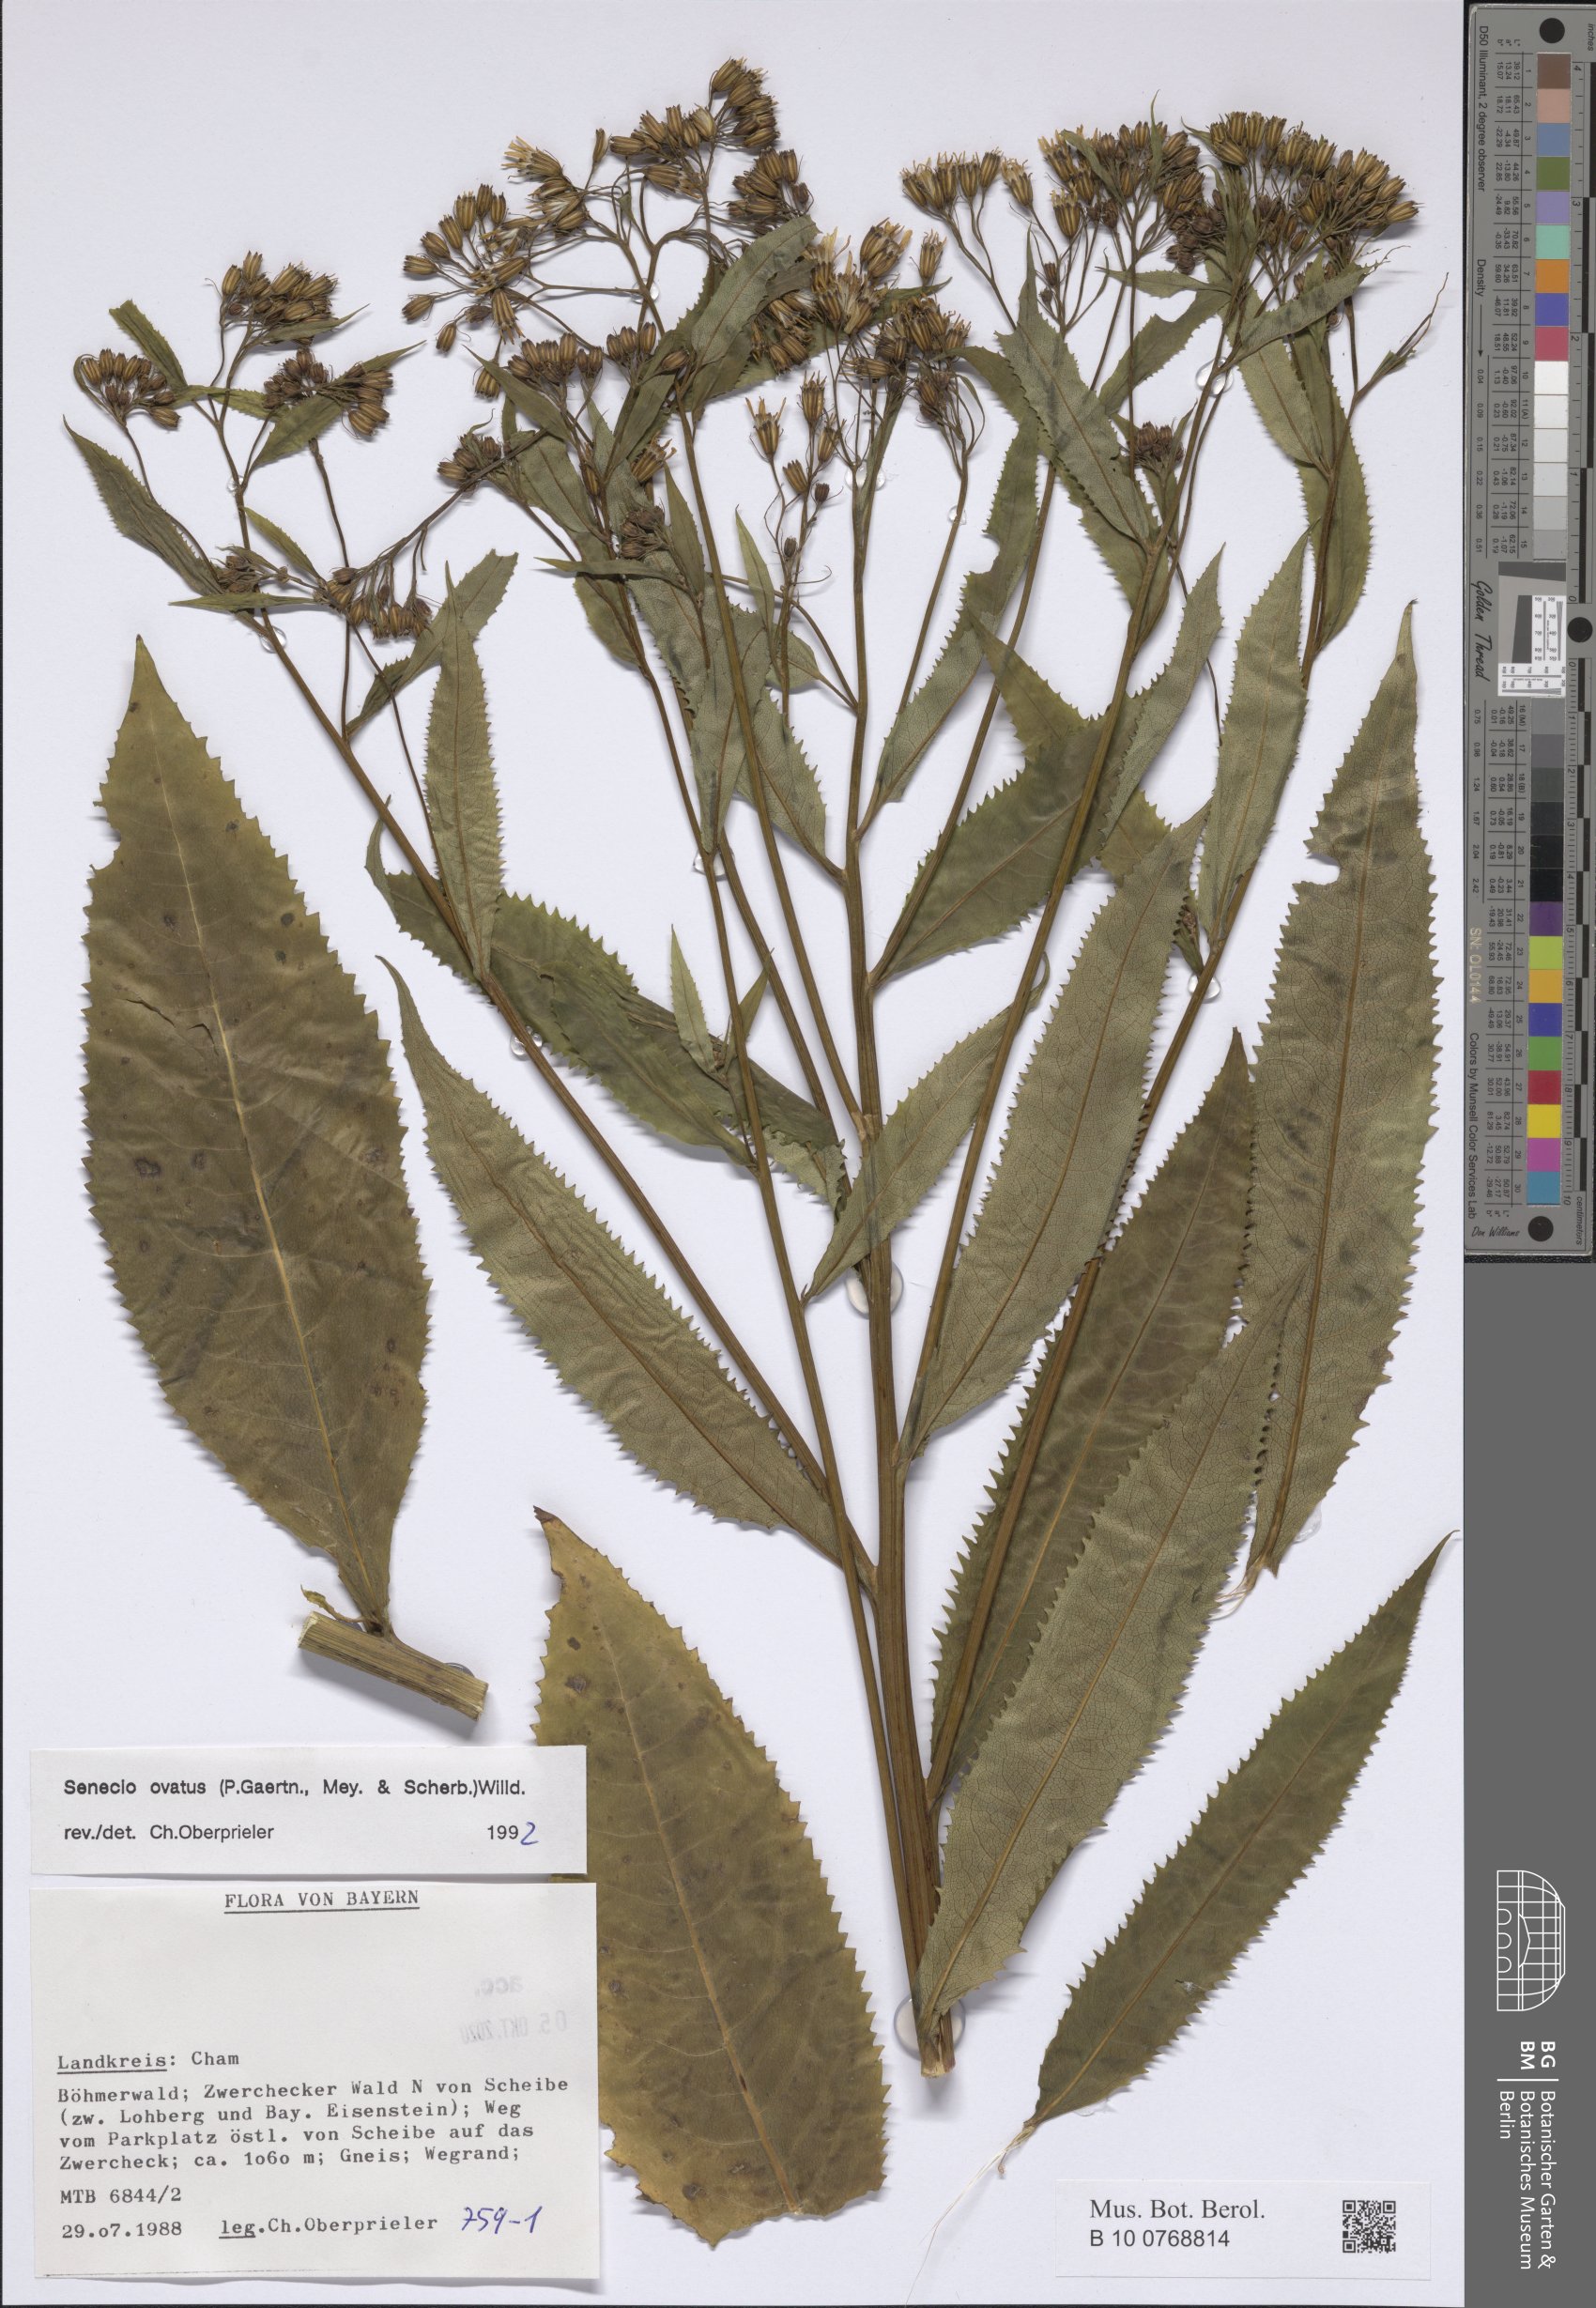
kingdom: Plantae
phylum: Tracheophyta
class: Magnoliopsida
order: Asterales
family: Asteraceae
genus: Senecio
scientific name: Senecio ovatus
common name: Wood ragwort
